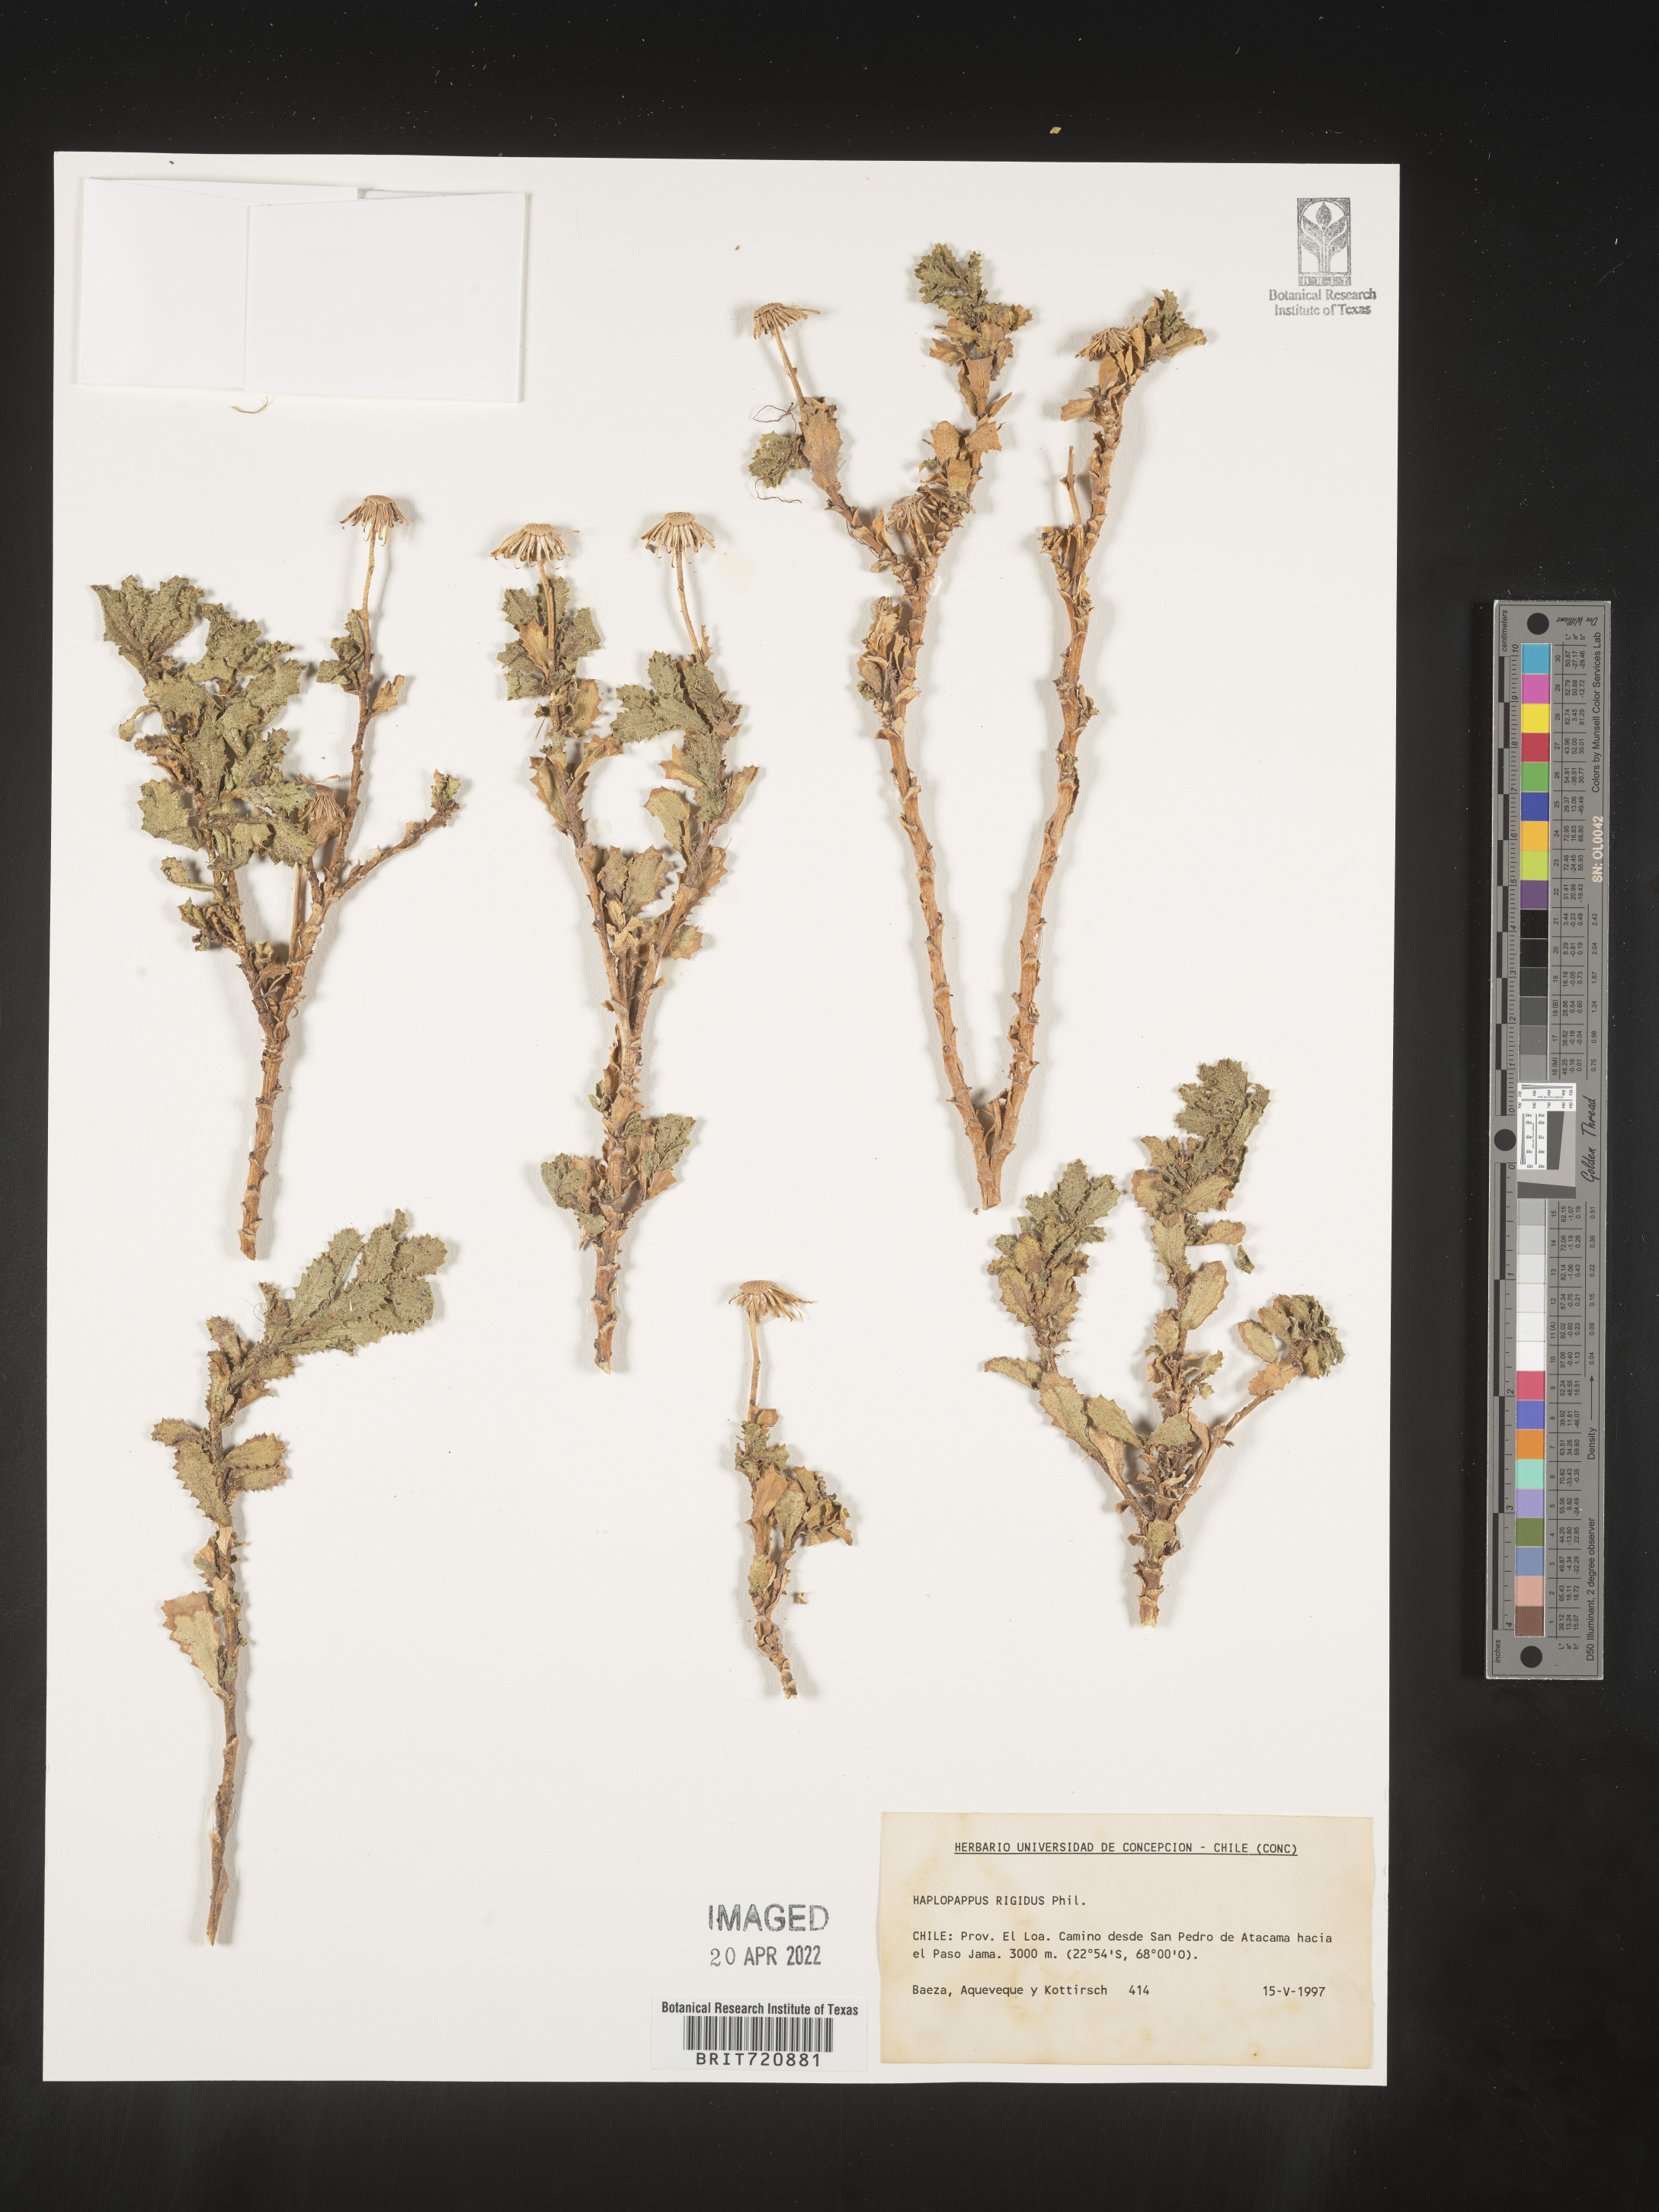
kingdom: Plantae
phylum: Tracheophyta
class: Magnoliopsida
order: Asterales
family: Asteraceae
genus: Haplopappus
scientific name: Haplopappus
